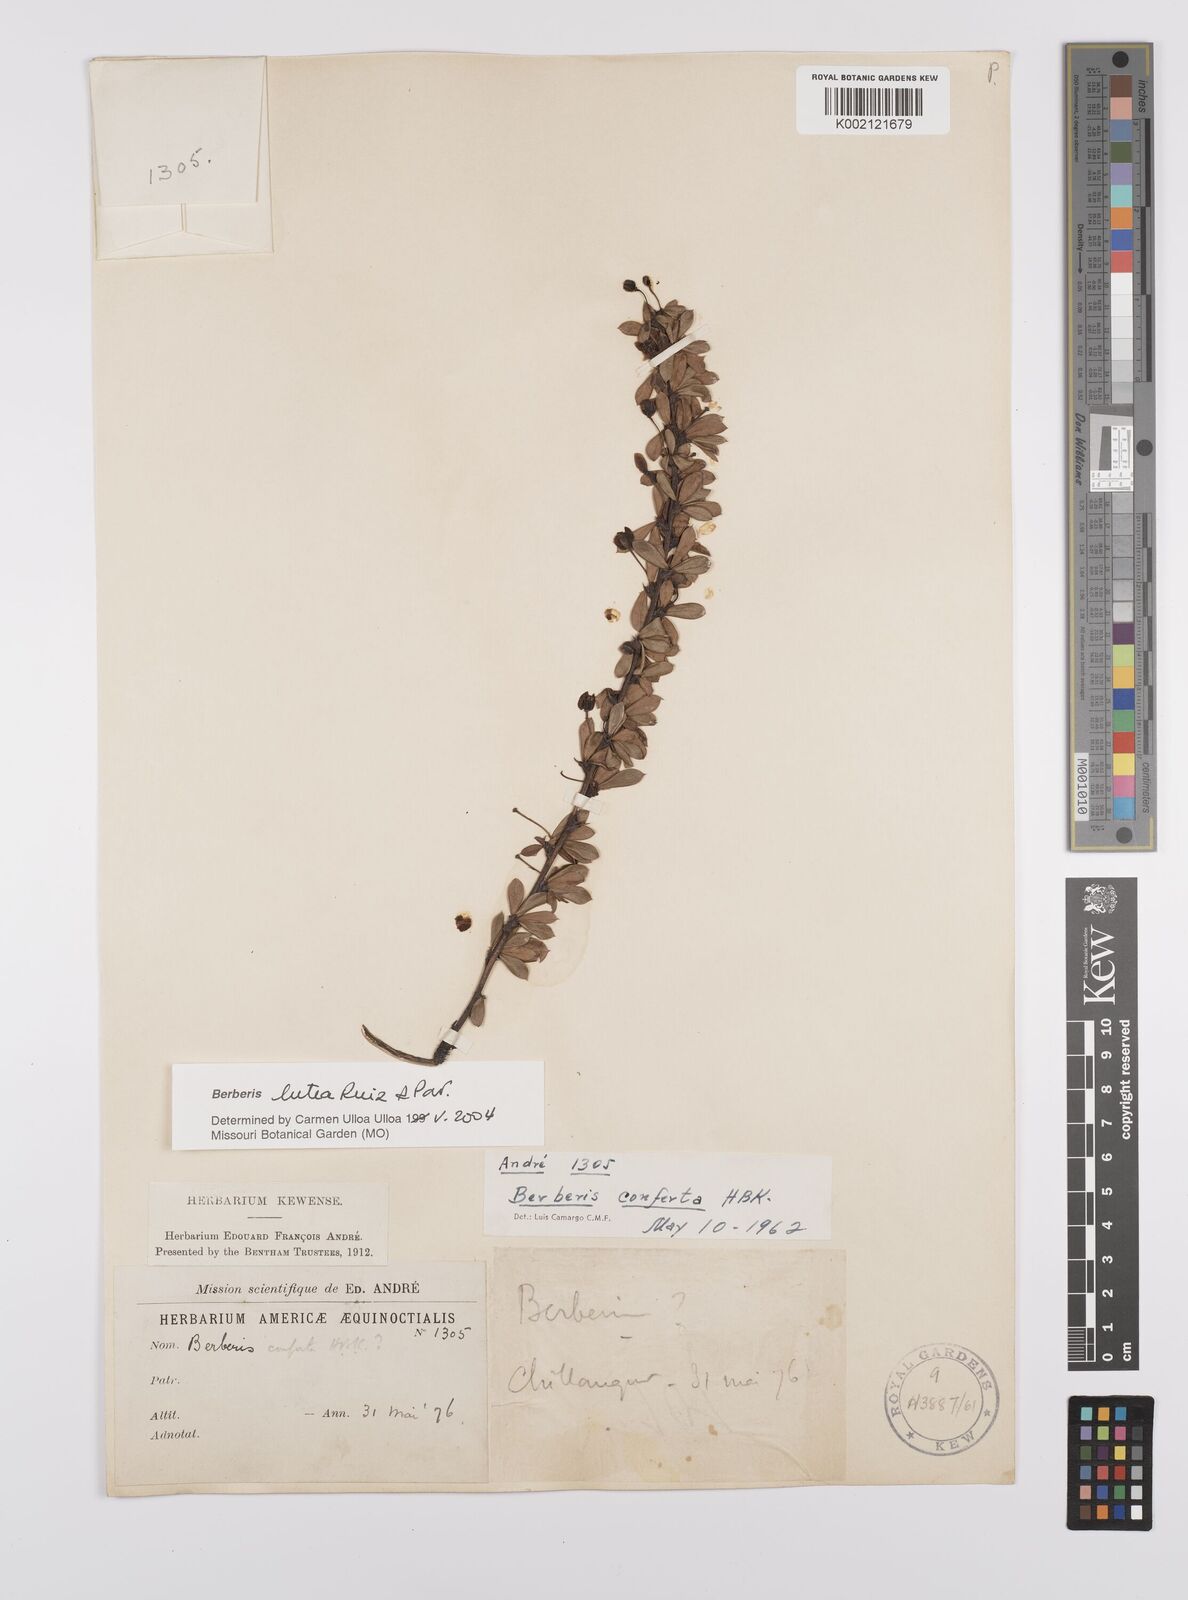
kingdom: Plantae
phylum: Tracheophyta
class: Magnoliopsida
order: Ranunculales
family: Berberidaceae
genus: Berberis
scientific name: Berberis lutea
